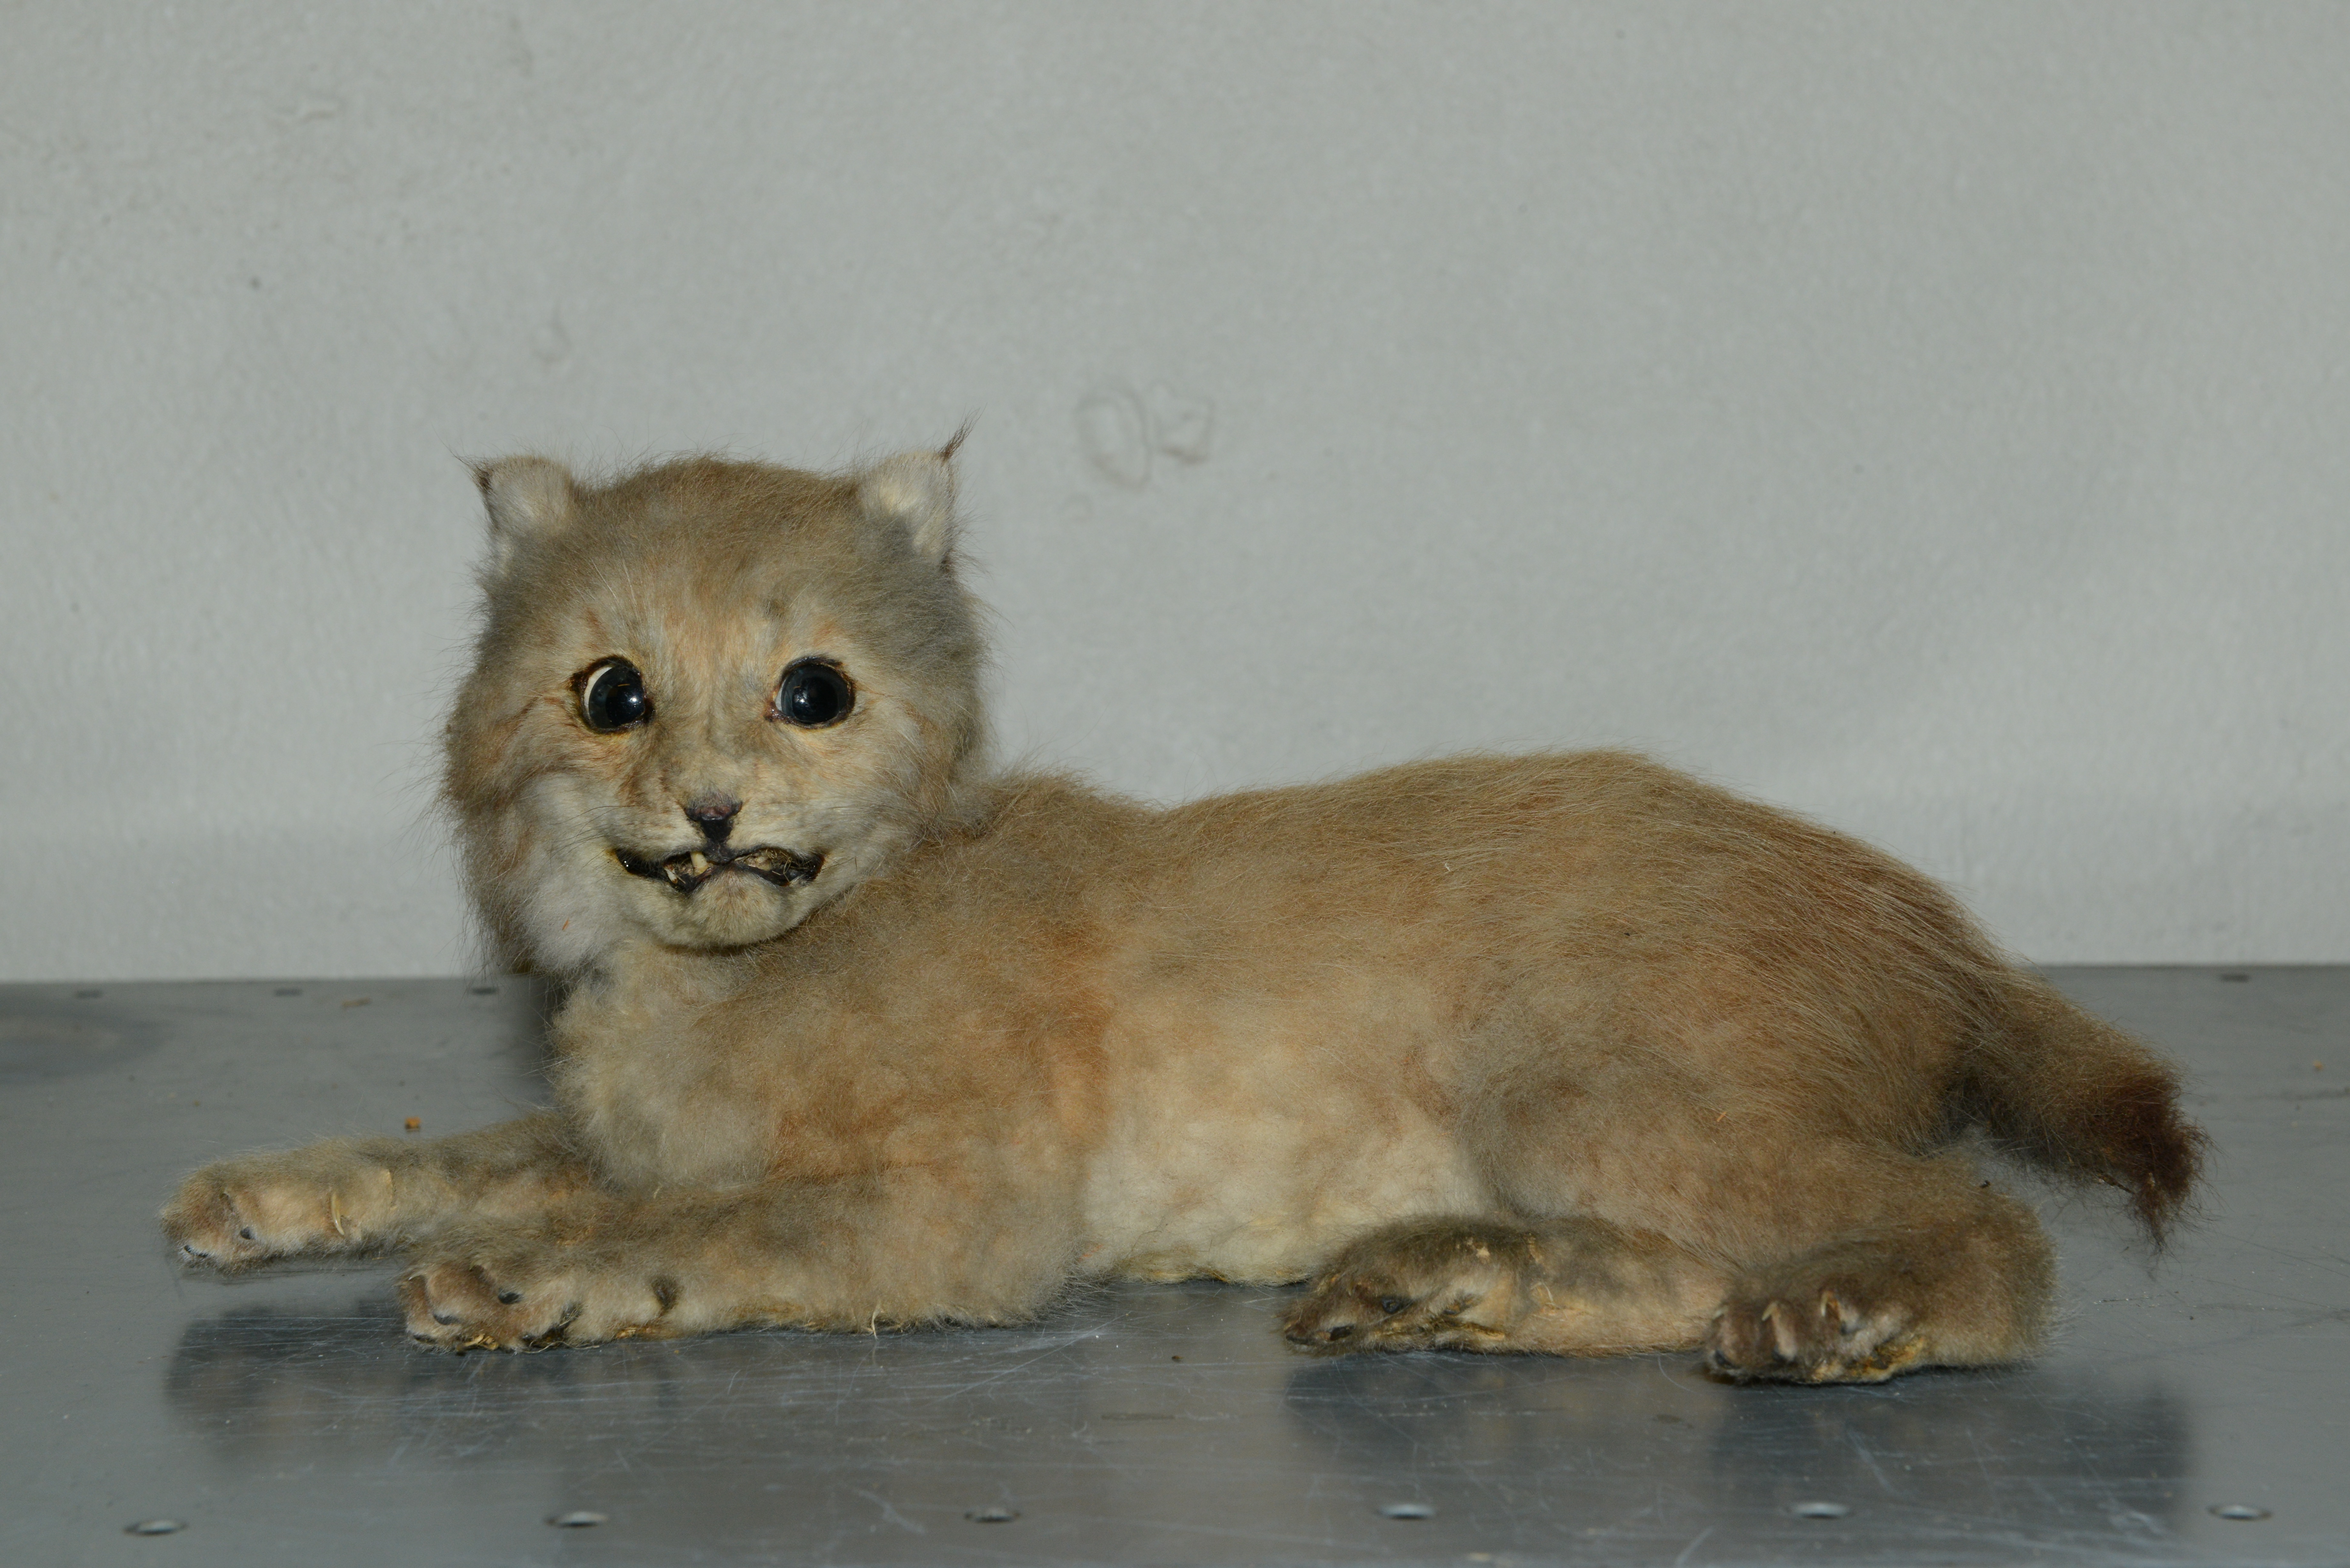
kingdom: Animalia
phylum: Chordata
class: Mammalia
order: Carnivora
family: Felidae
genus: Lynx
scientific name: Lynx lynx
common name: Eurasian lynx
